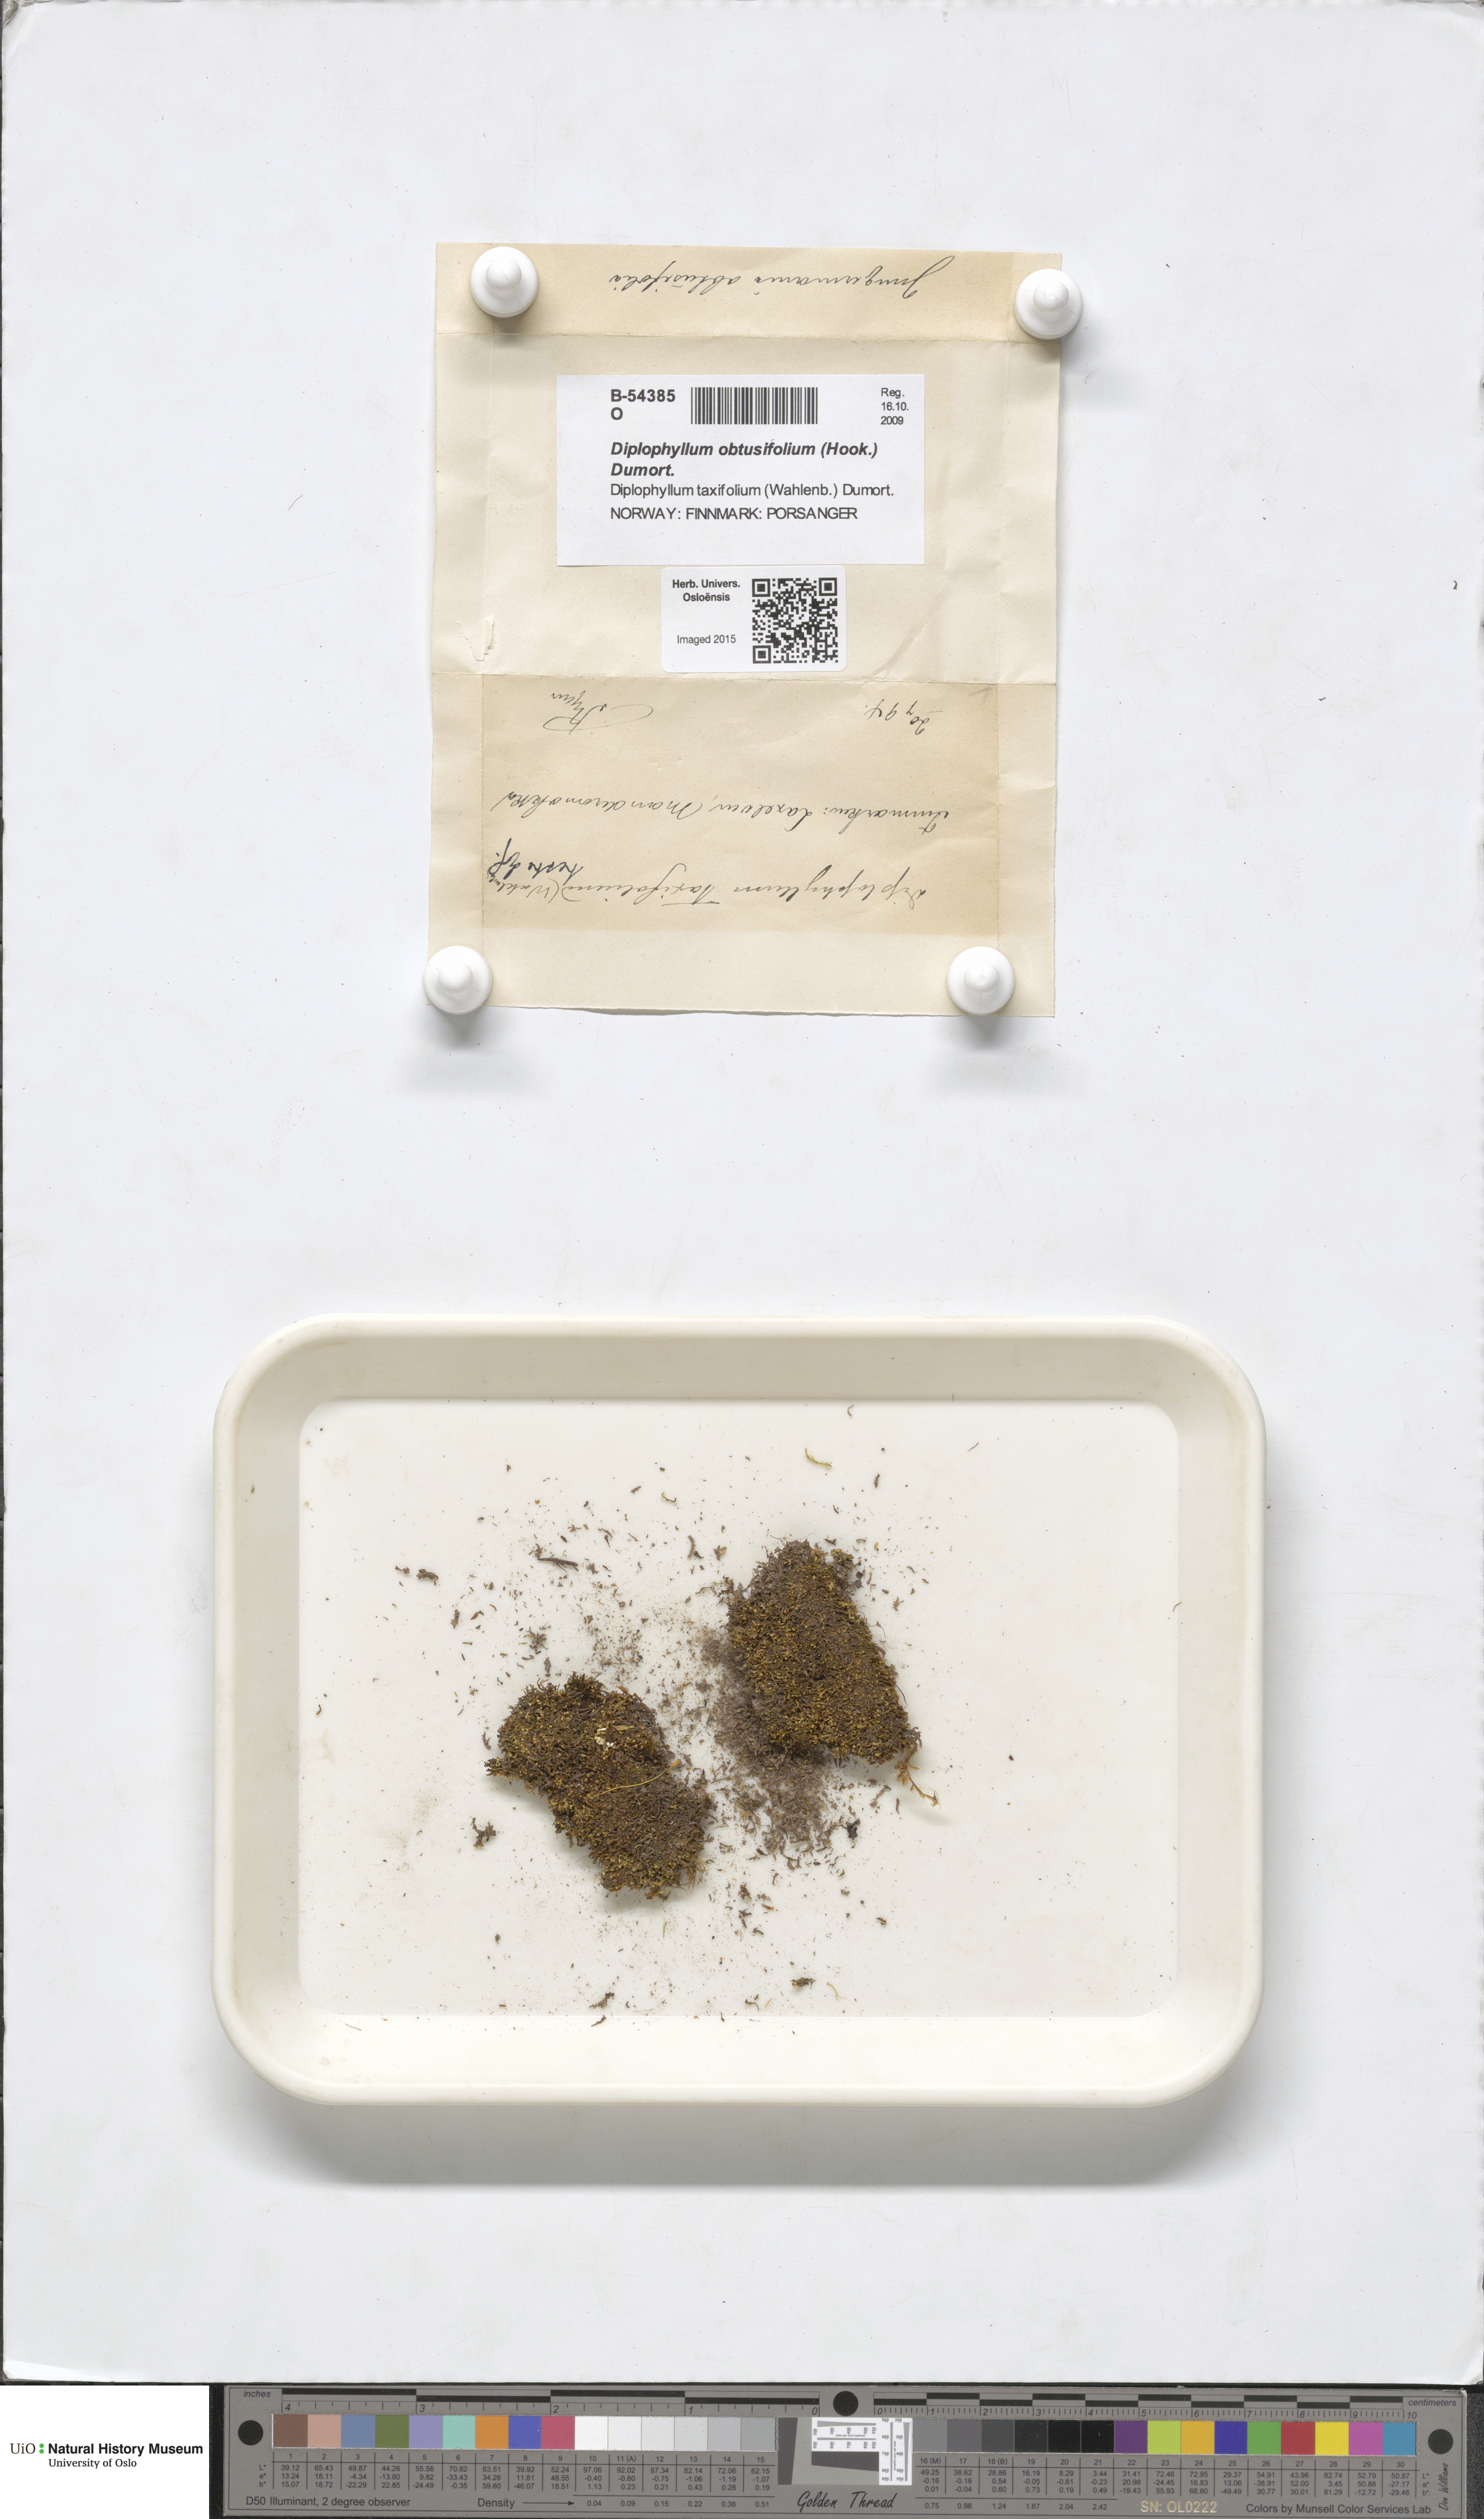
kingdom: Plantae
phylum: Marchantiophyta
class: Jungermanniopsida
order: Jungermanniales
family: Scapaniaceae
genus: Diplophyllum
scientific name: Diplophyllum obtusifolium
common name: Blunt-leaved earwort
